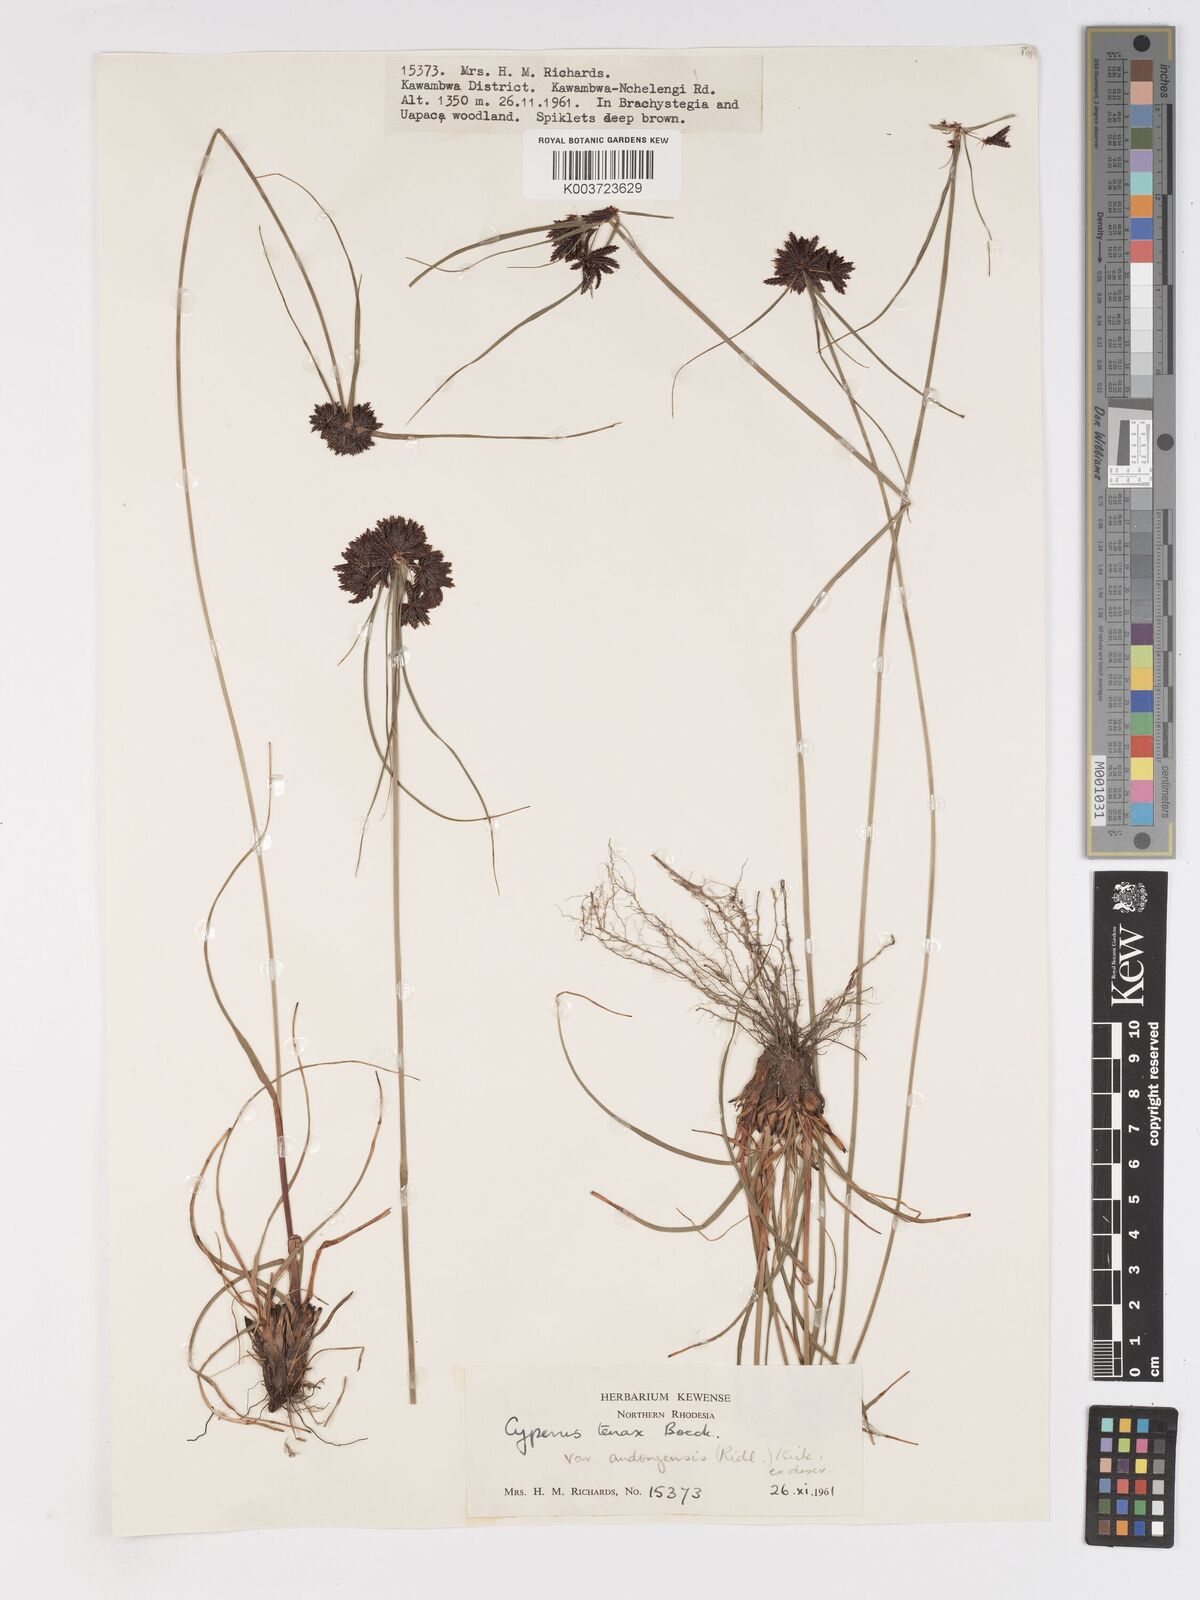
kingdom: Plantae
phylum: Tracheophyta
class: Liliopsida
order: Poales
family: Cyperaceae
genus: Cyperus
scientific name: Cyperus tenax
